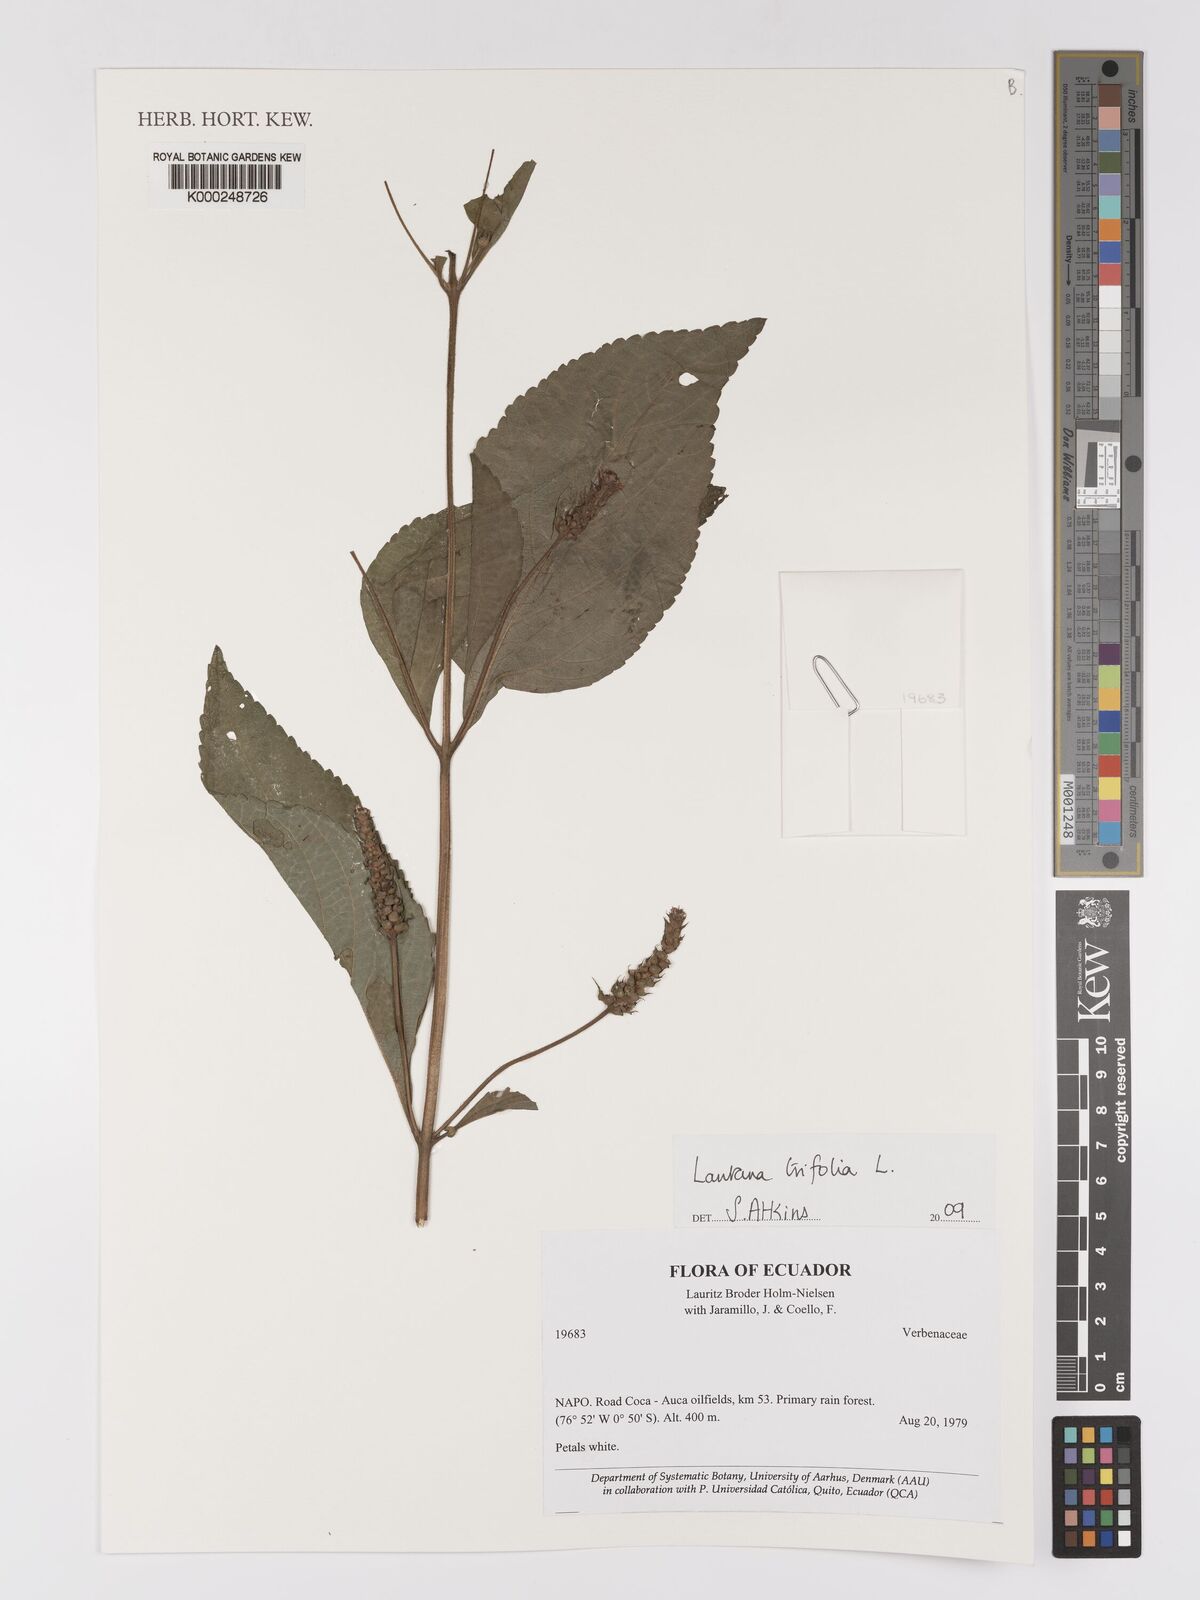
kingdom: Plantae
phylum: Tracheophyta
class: Magnoliopsida
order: Lamiales
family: Verbenaceae
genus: Lantana
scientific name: Lantana trifolia
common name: Sweet-sage
